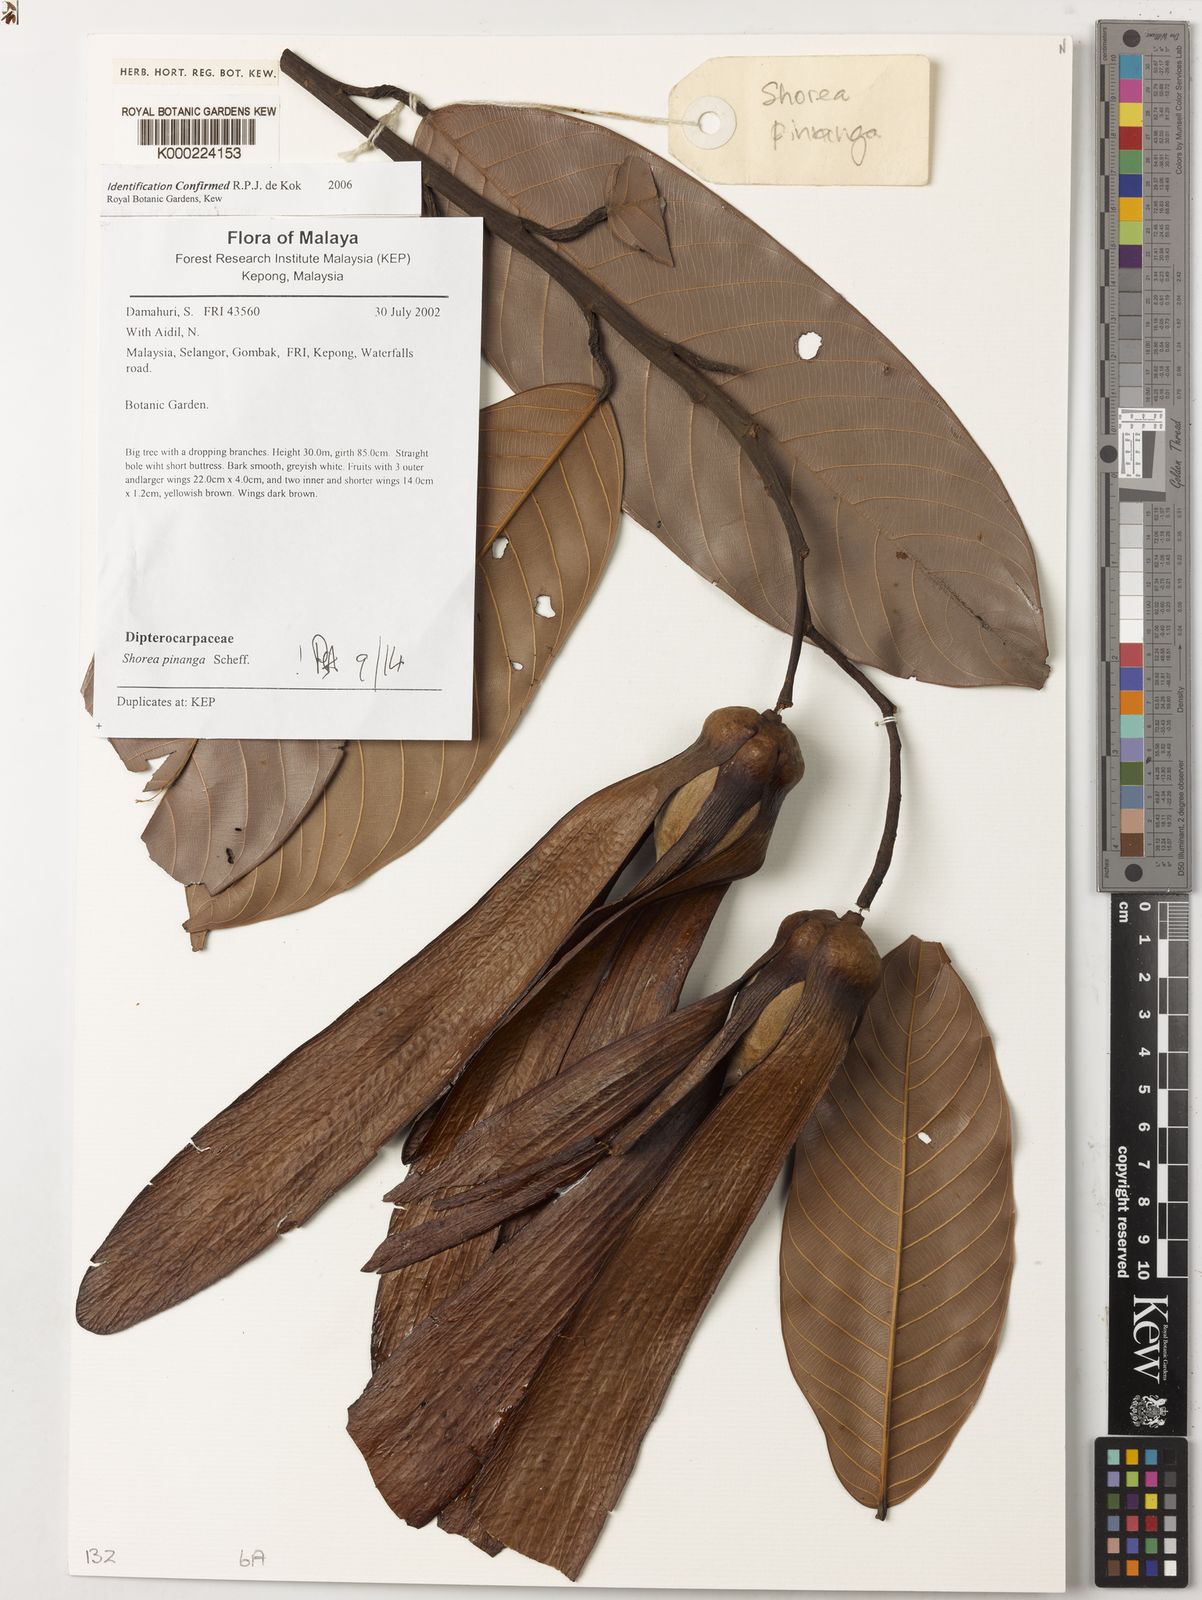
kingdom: Plantae
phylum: Tracheophyta
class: Magnoliopsida
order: Malvales
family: Dipterocarpaceae
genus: Dipterocarpus
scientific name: Dipterocarpus
